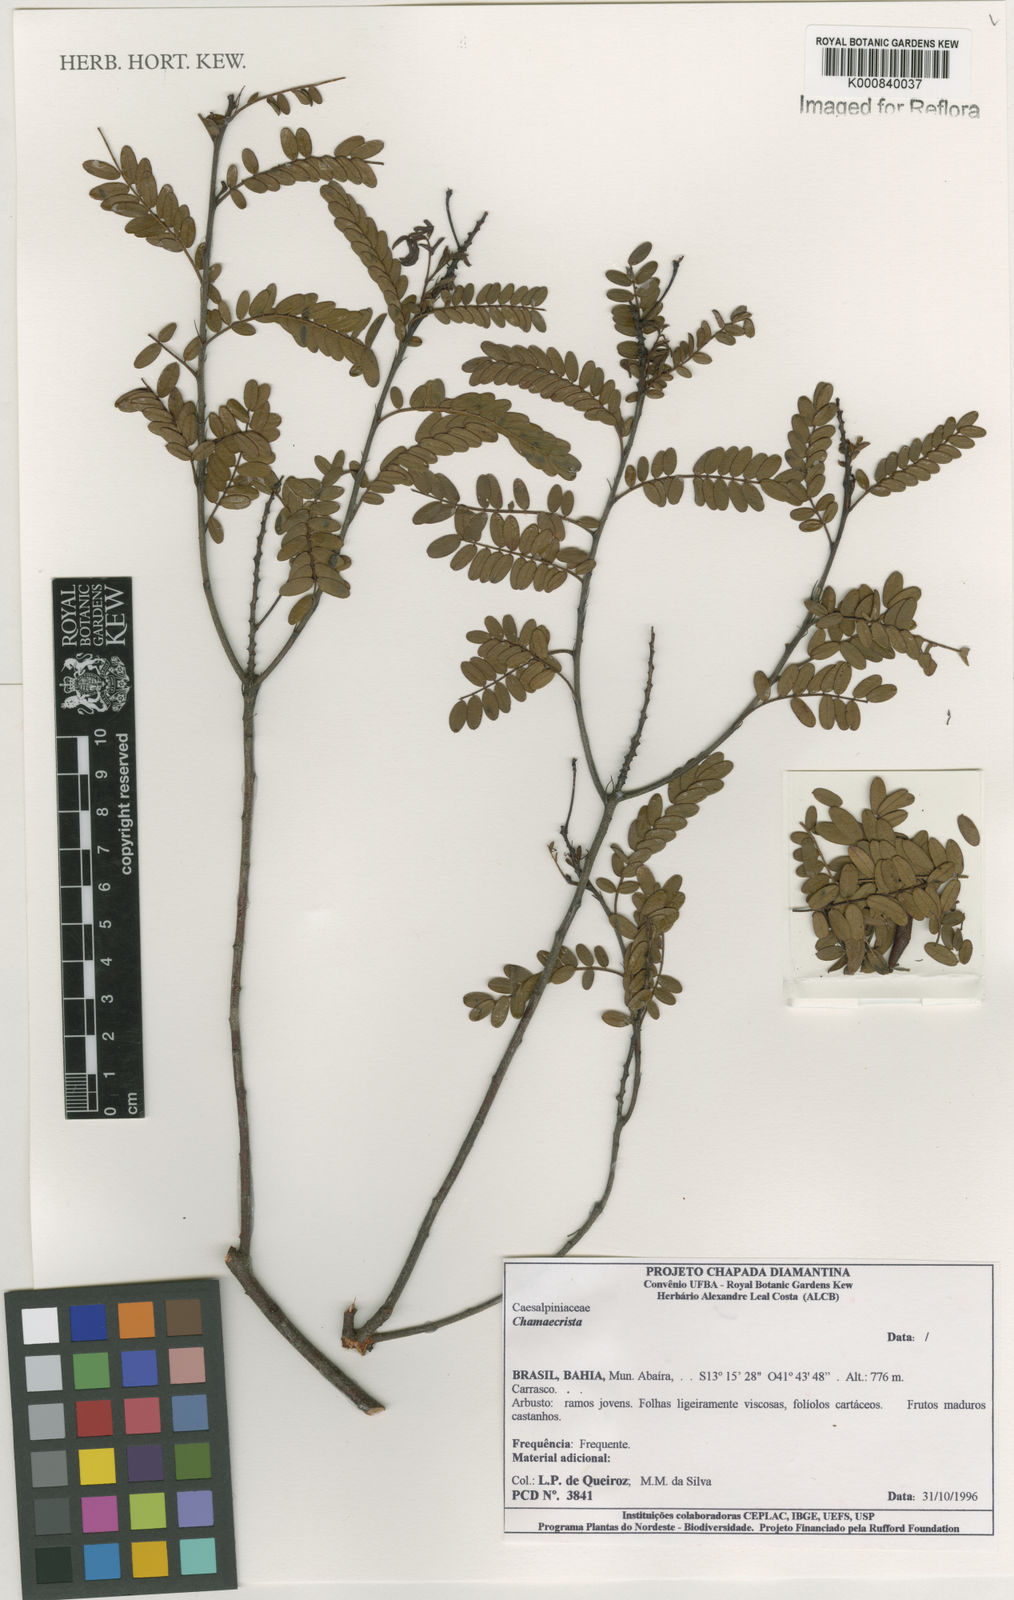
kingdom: Plantae
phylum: Tracheophyta
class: Magnoliopsida
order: Fabales
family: Fabaceae
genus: Chamaecrista
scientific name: Chamaecrista
